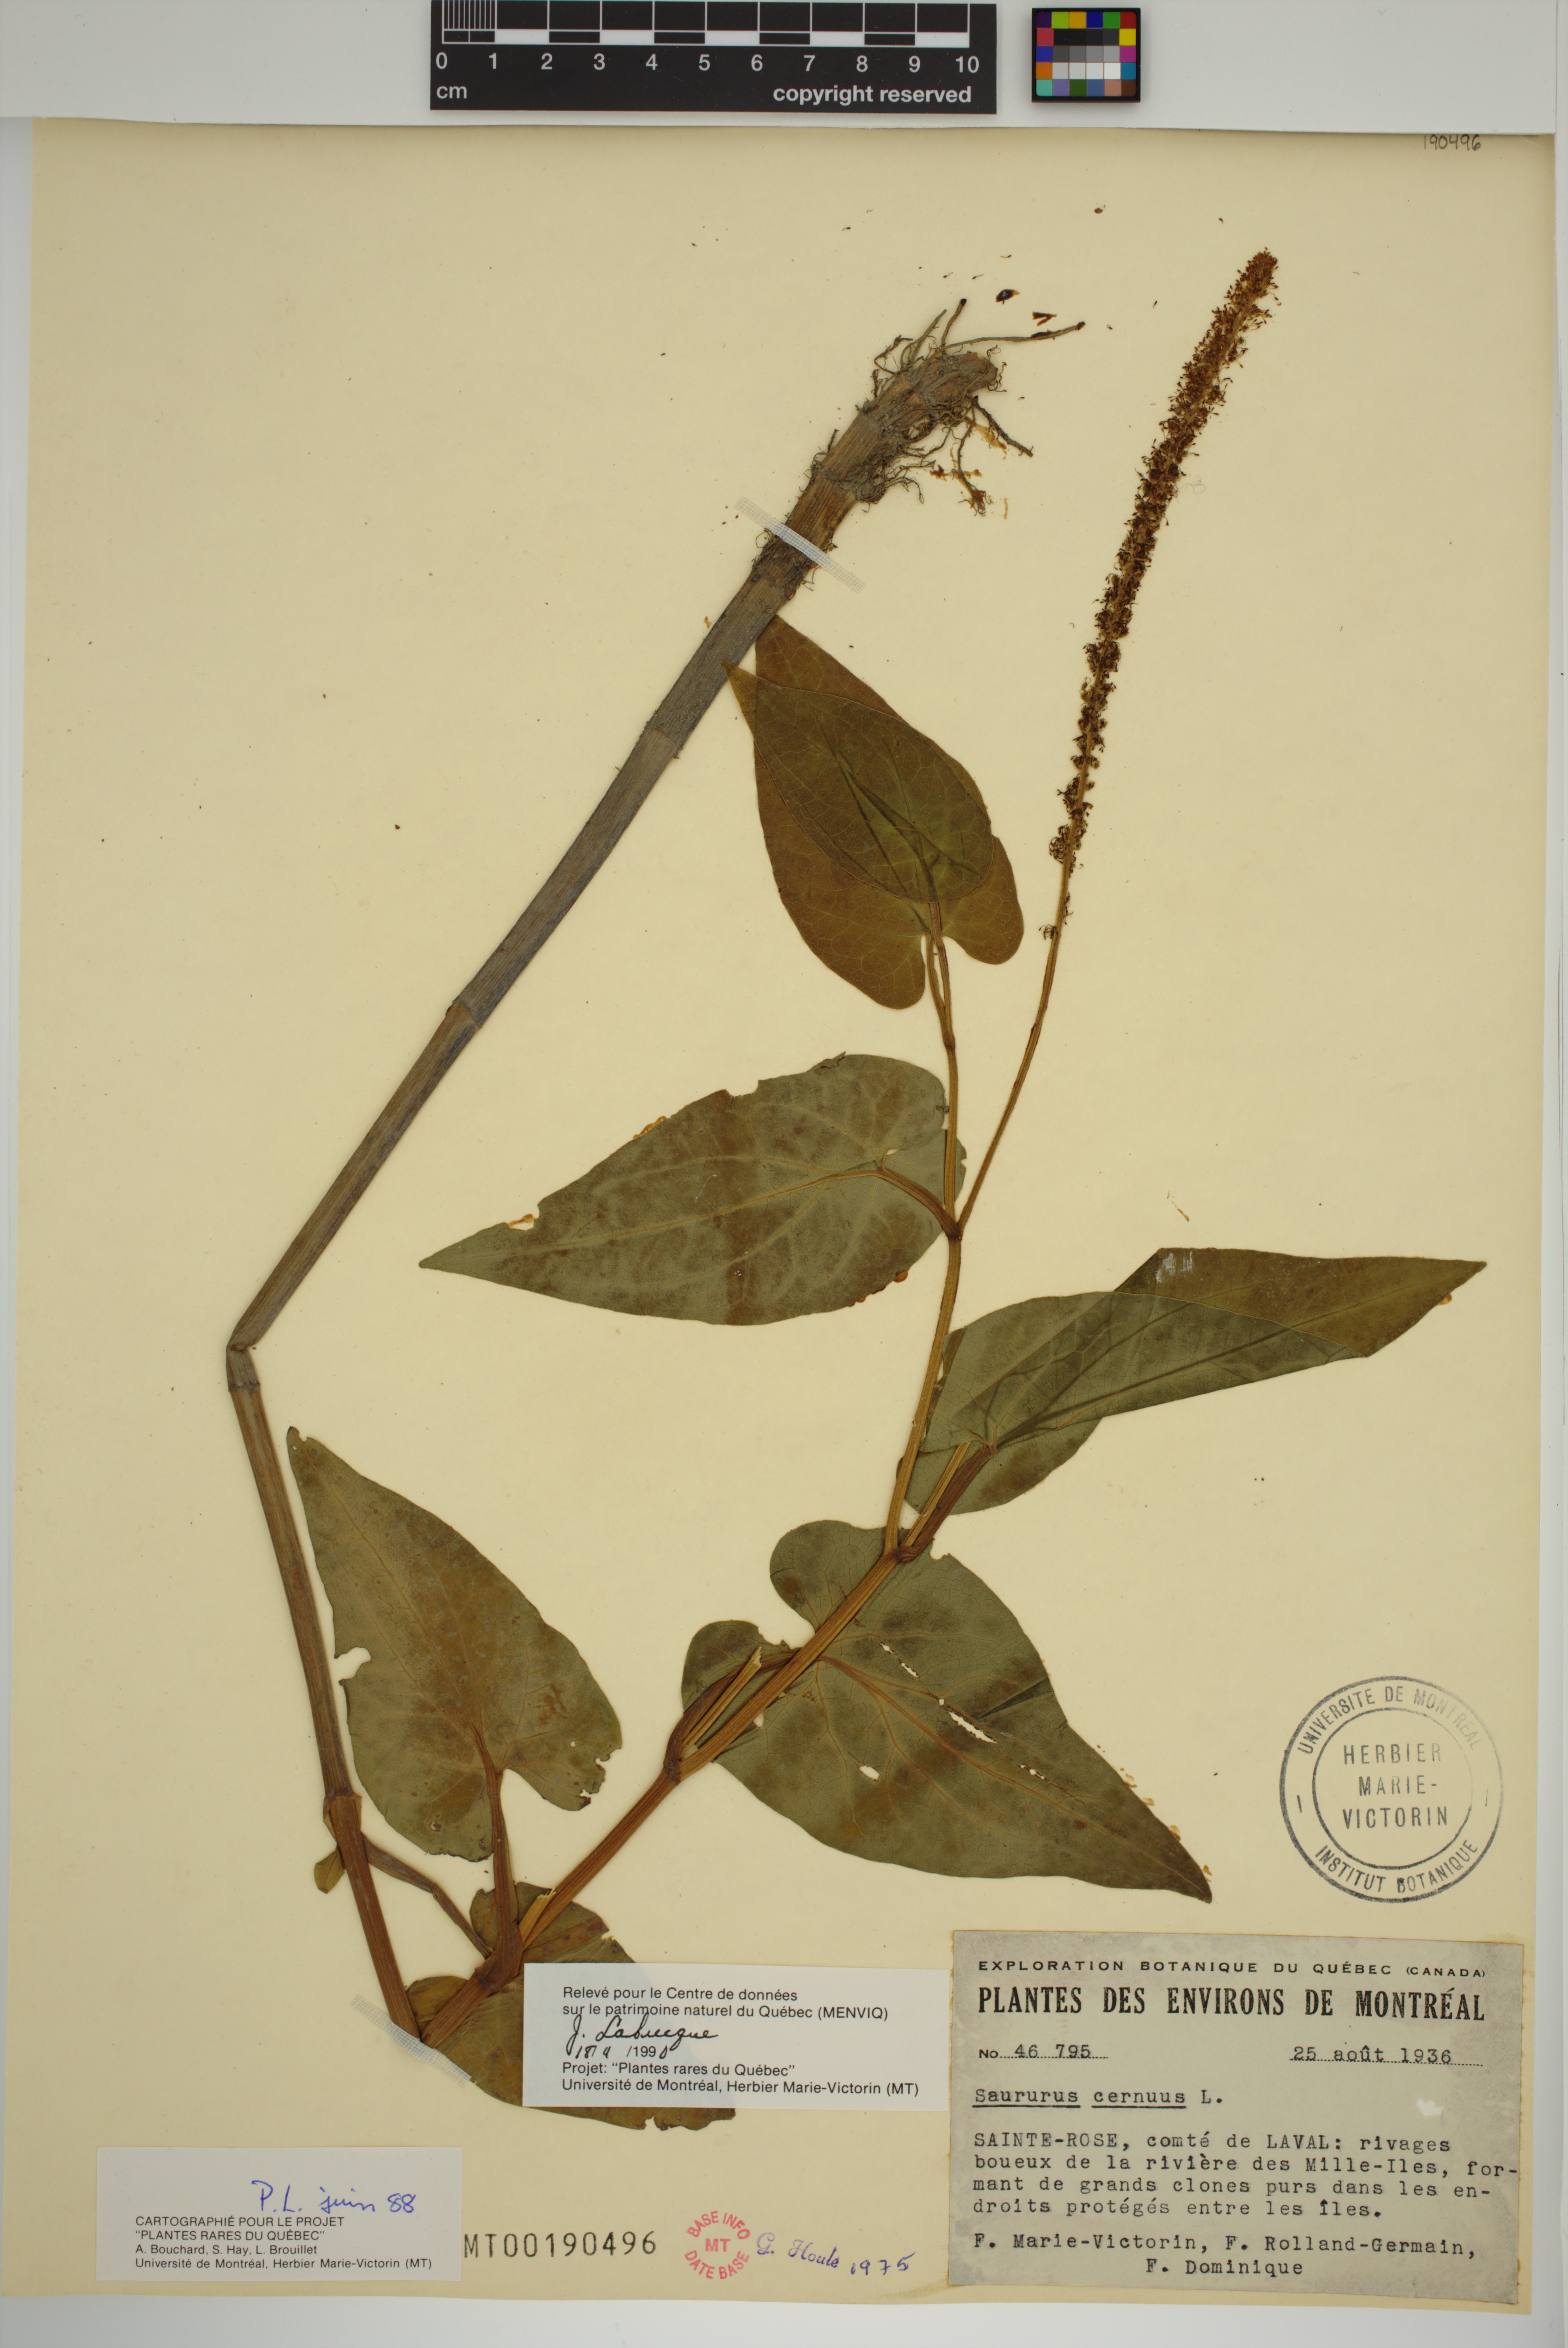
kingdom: Plantae
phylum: Tracheophyta
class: Magnoliopsida
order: Piperales
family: Saururaceae
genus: Saururus
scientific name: Saururus cernuus
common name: Lizard's-tail
